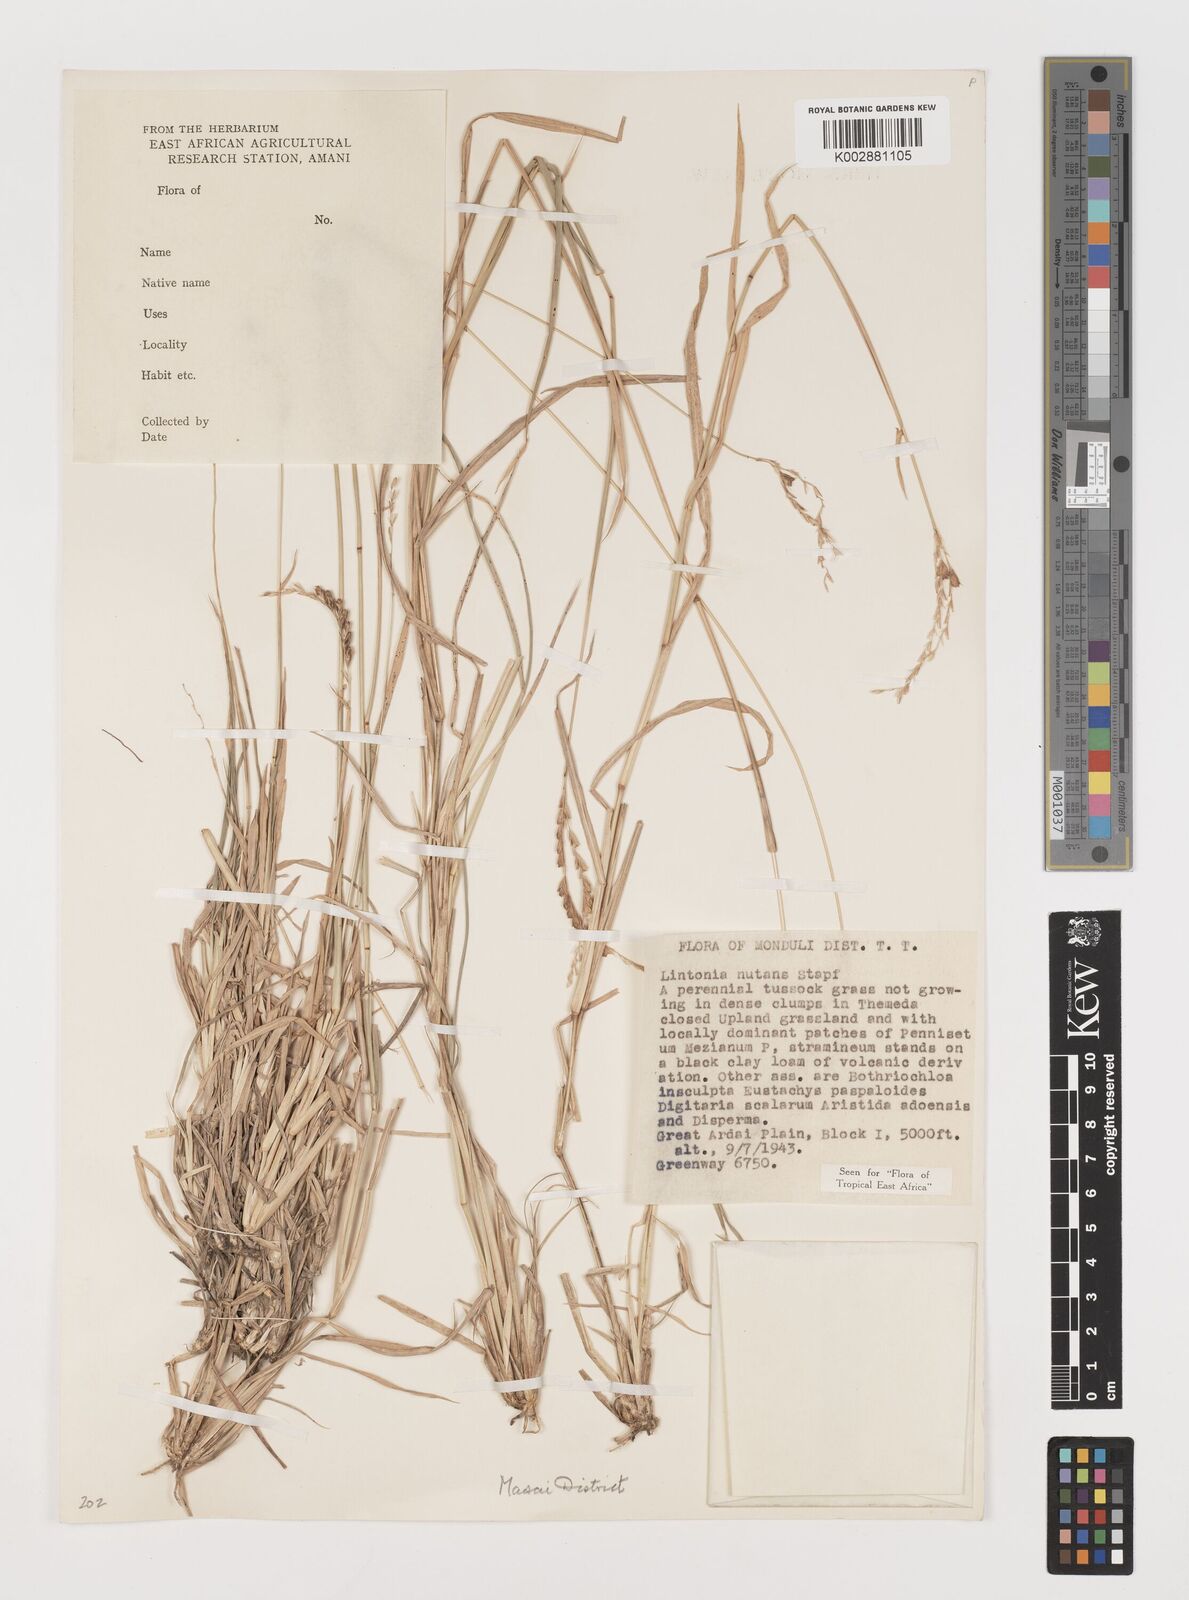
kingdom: Plantae
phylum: Tracheophyta
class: Liliopsida
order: Poales
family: Poaceae
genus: Chloris
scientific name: Chloris nutans
